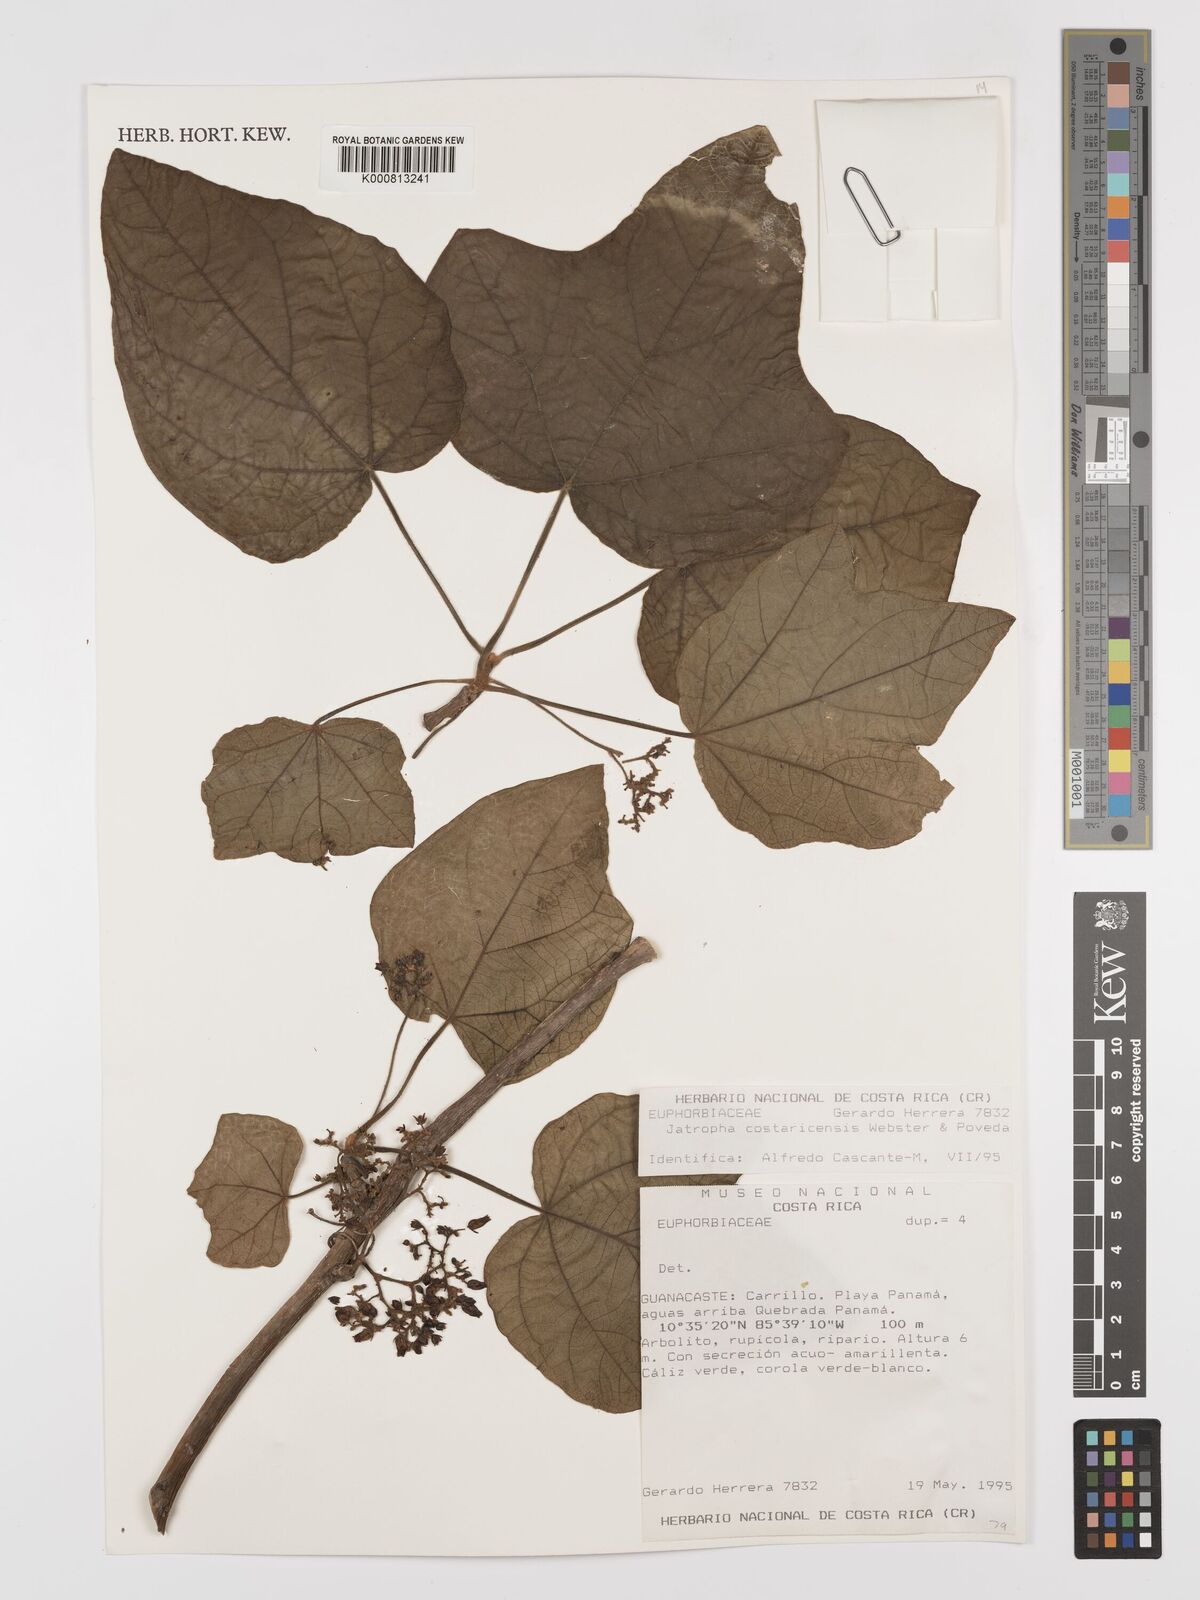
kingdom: Plantae
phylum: Tracheophyta
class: Magnoliopsida
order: Malpighiales
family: Euphorbiaceae
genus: Jatropha
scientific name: Jatropha costaricensis
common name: Costa rican jatropha
